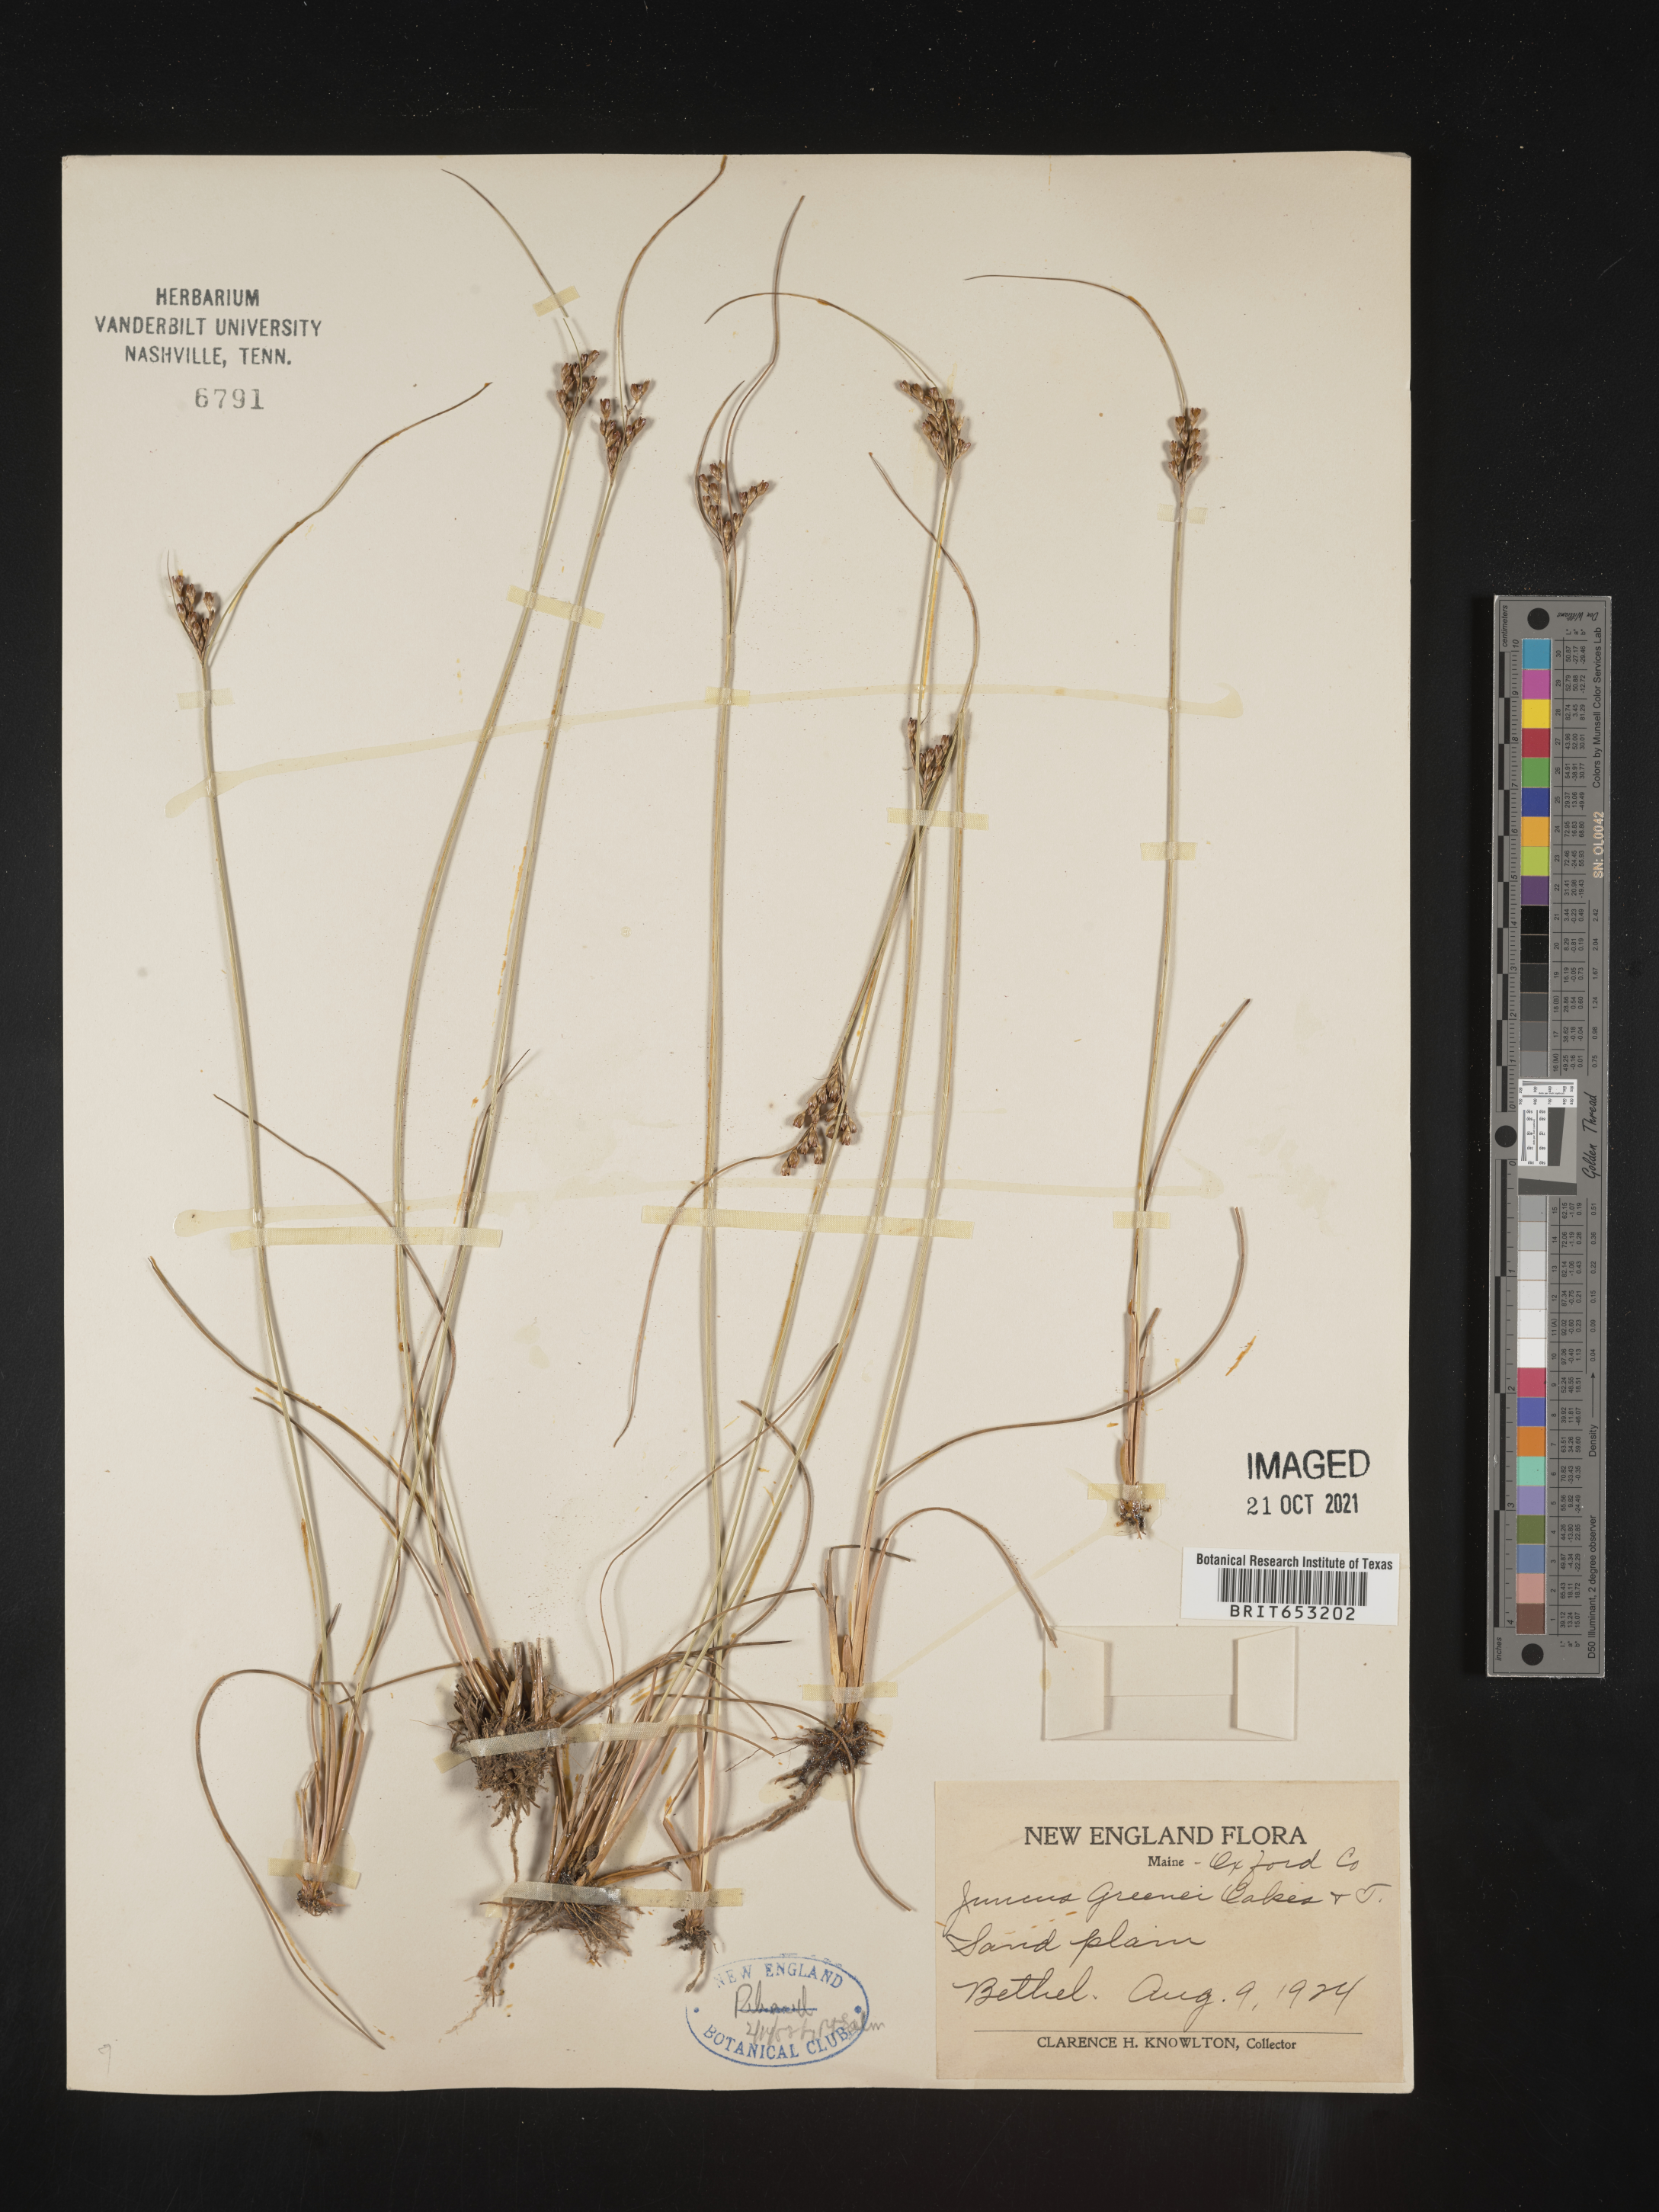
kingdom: Plantae
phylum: Tracheophyta
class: Liliopsida
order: Poales
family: Juncaceae
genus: Juncus
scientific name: Juncus greenei
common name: Greene's rush
